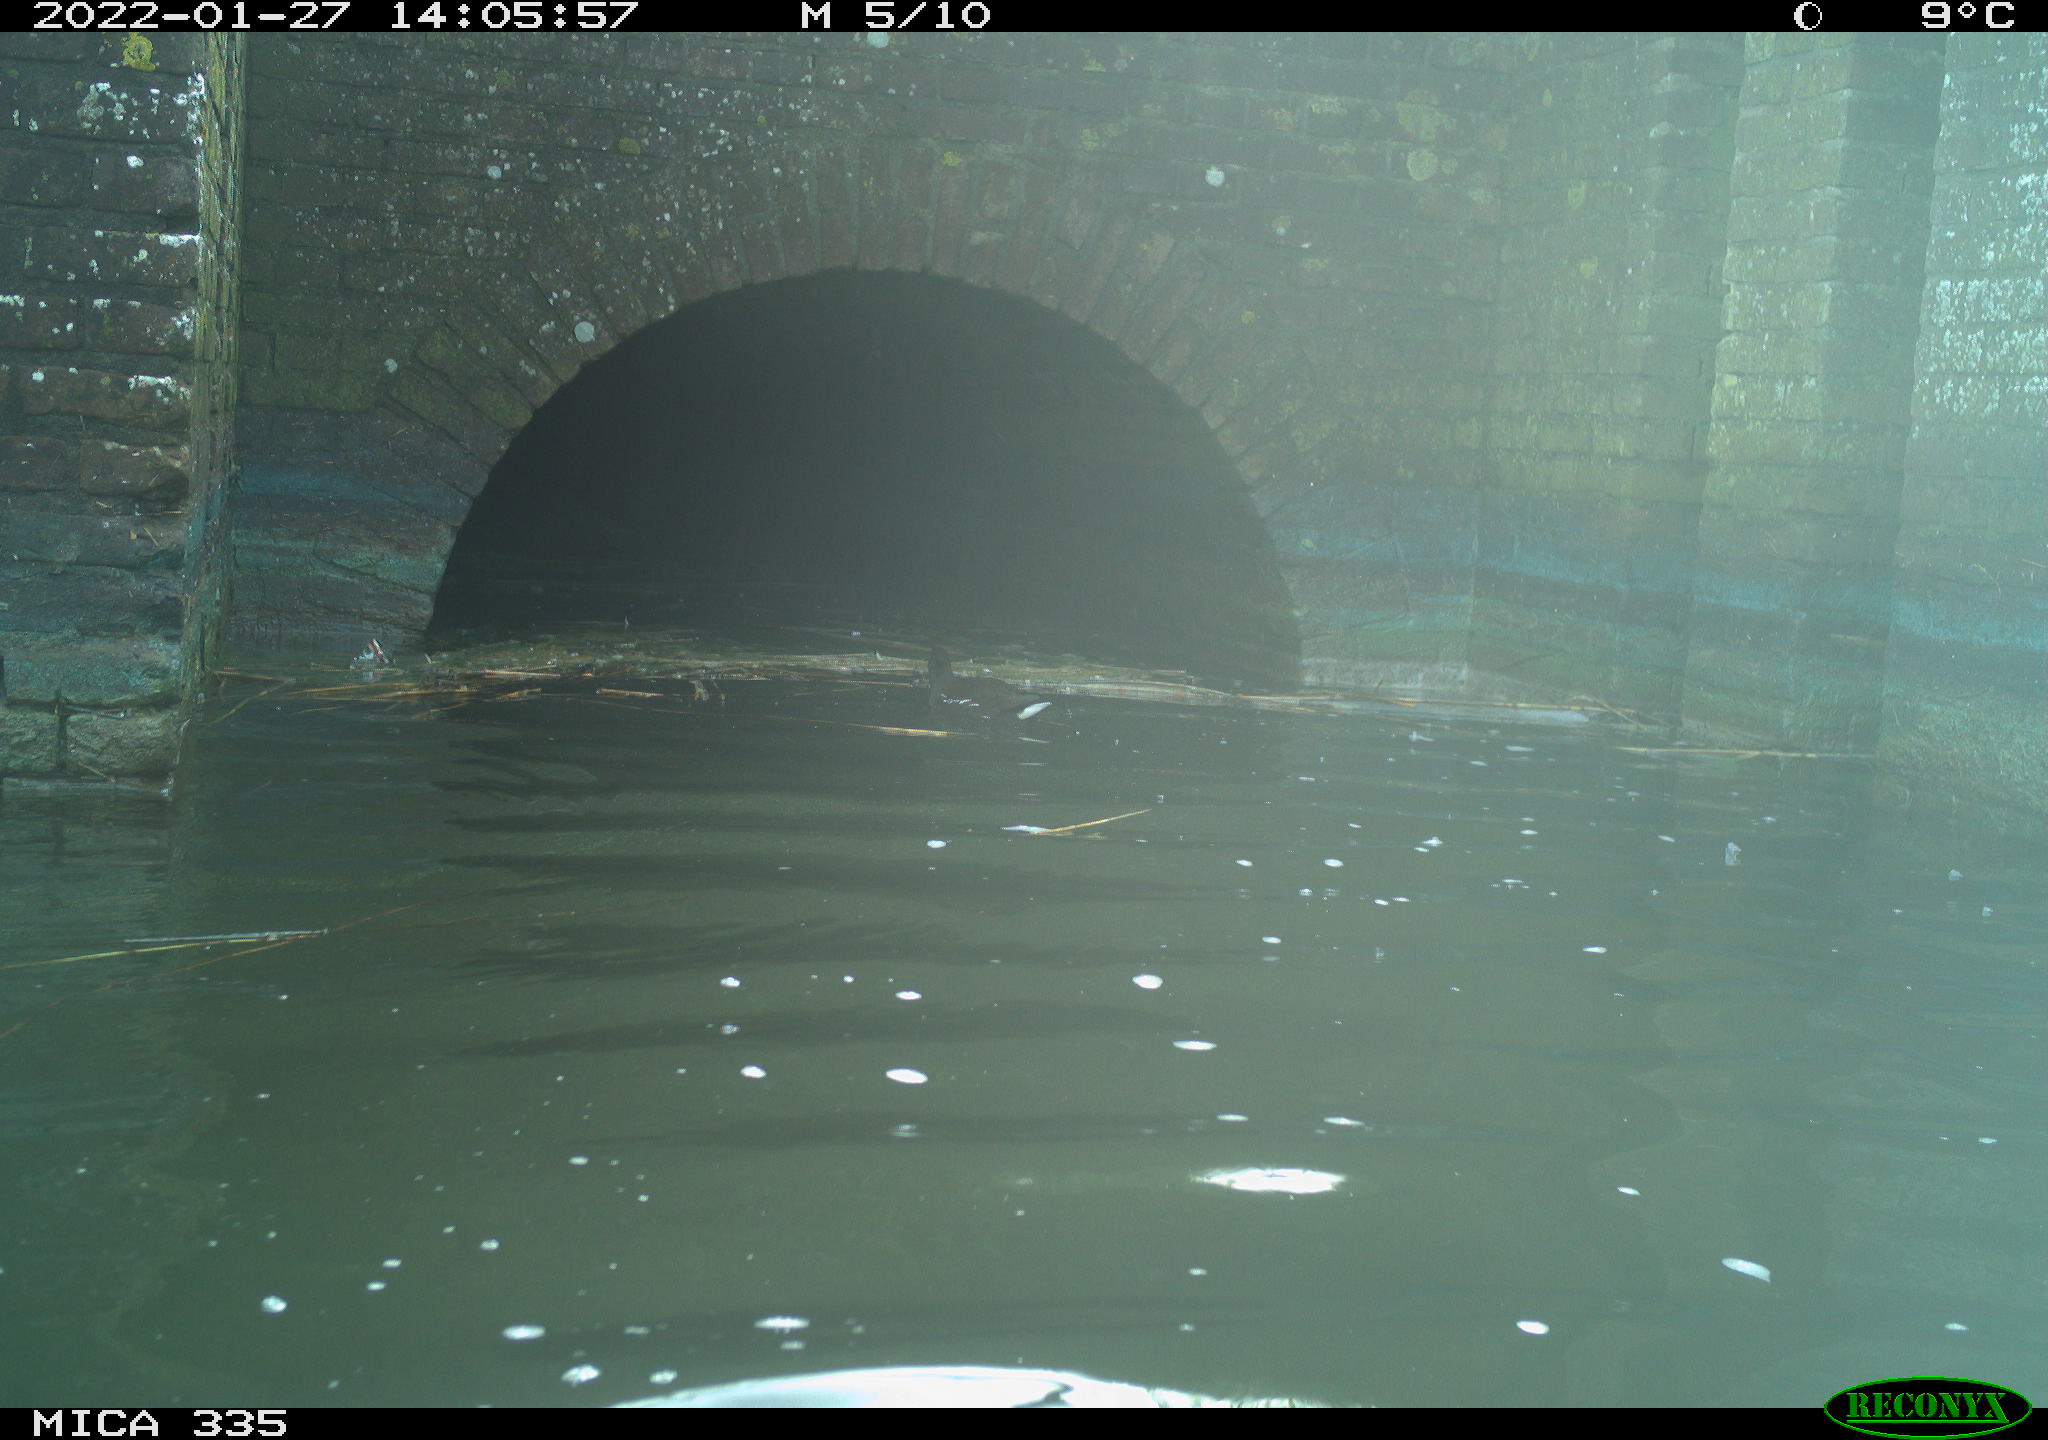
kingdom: Animalia
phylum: Chordata
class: Aves
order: Gruiformes
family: Rallidae
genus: Gallinula
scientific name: Gallinula chloropus
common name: Common moorhen
